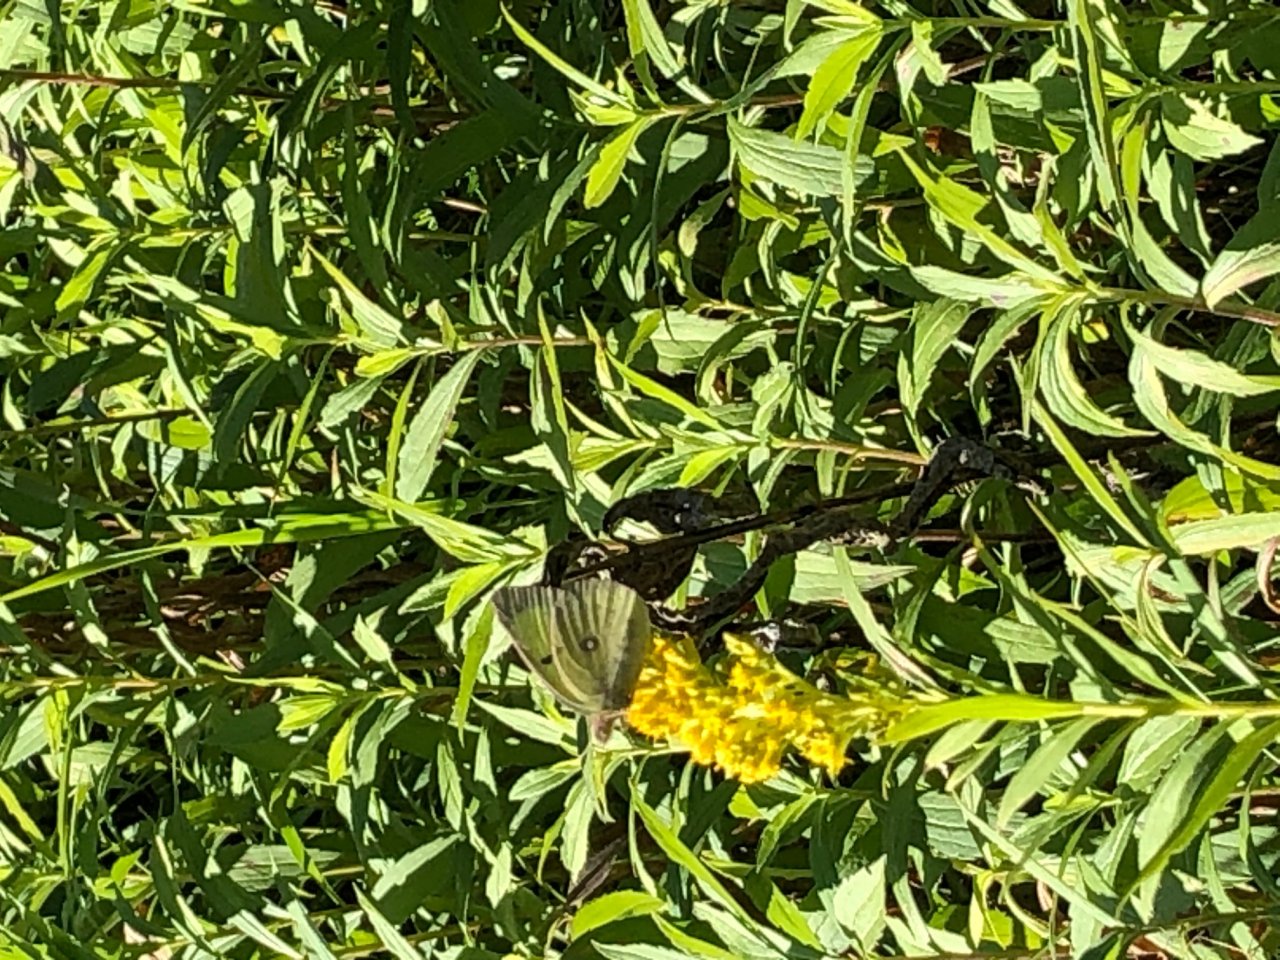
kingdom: Animalia
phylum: Arthropoda
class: Insecta
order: Lepidoptera
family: Pieridae
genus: Colias
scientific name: Colias philodice
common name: Clouded Sulphur
